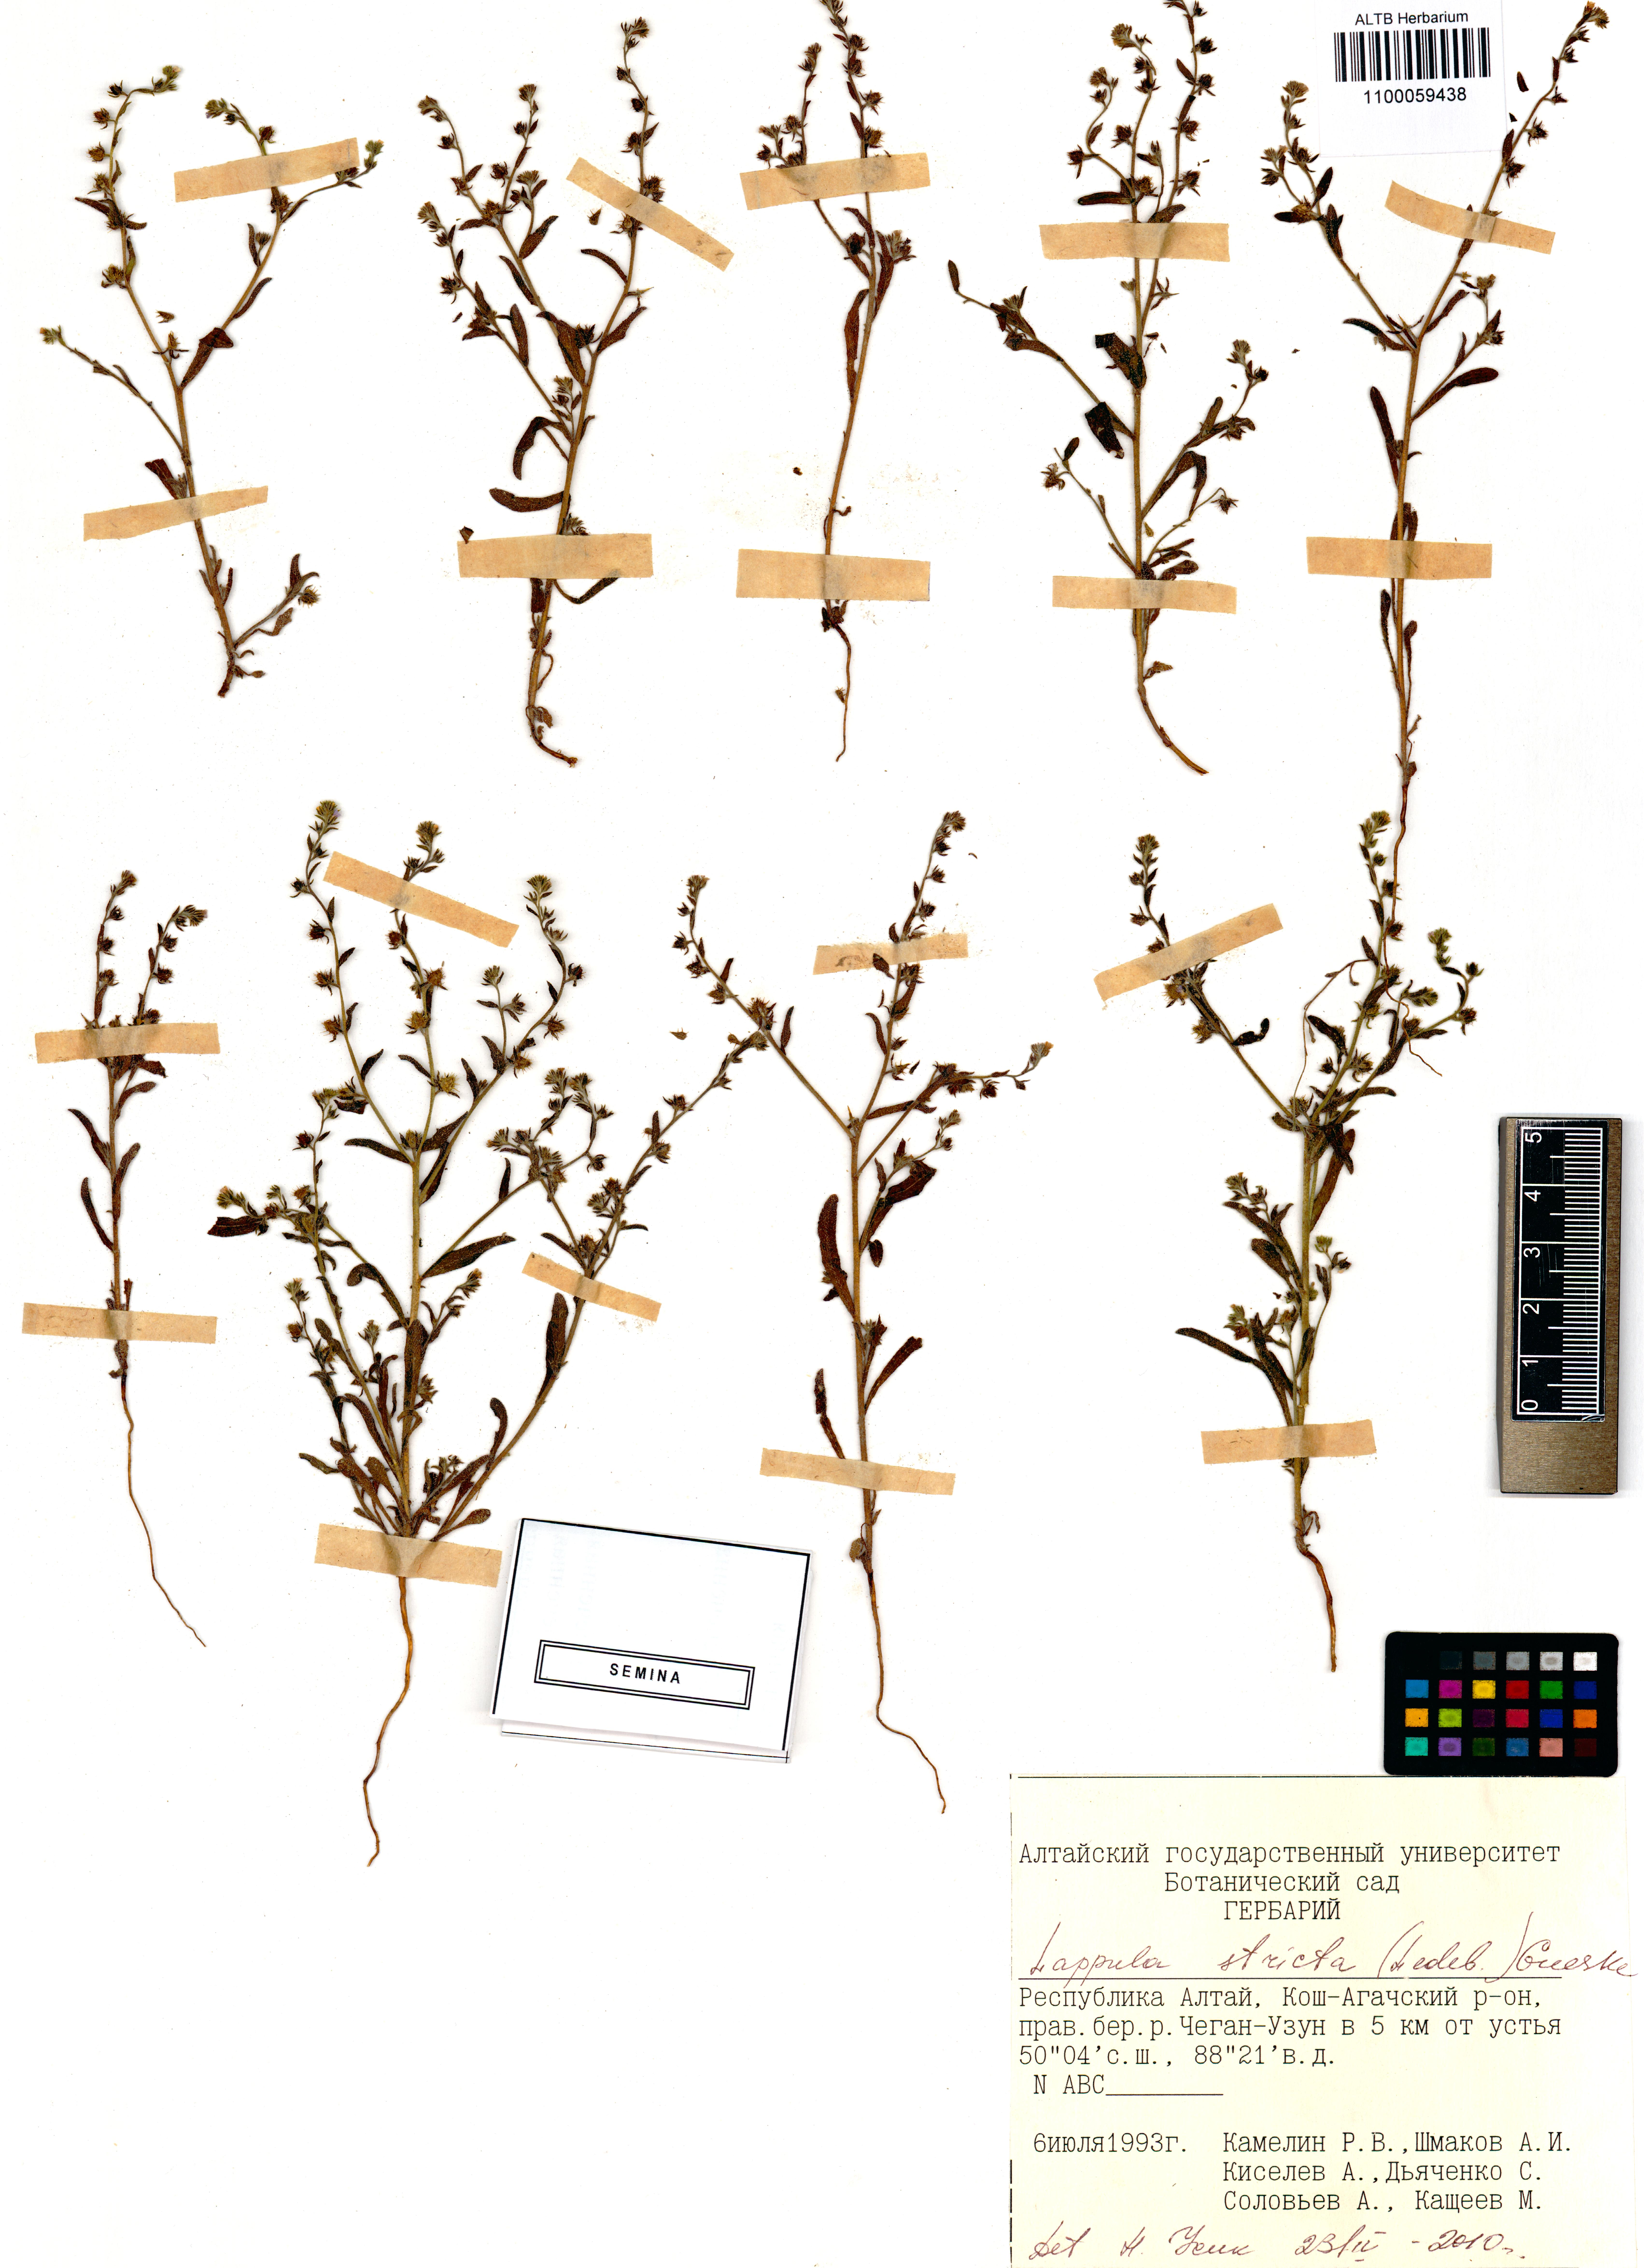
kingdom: Plantae
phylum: Tracheophyta
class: Magnoliopsida
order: Boraginales
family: Boraginaceae
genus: Lappula
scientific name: Lappula stricta
